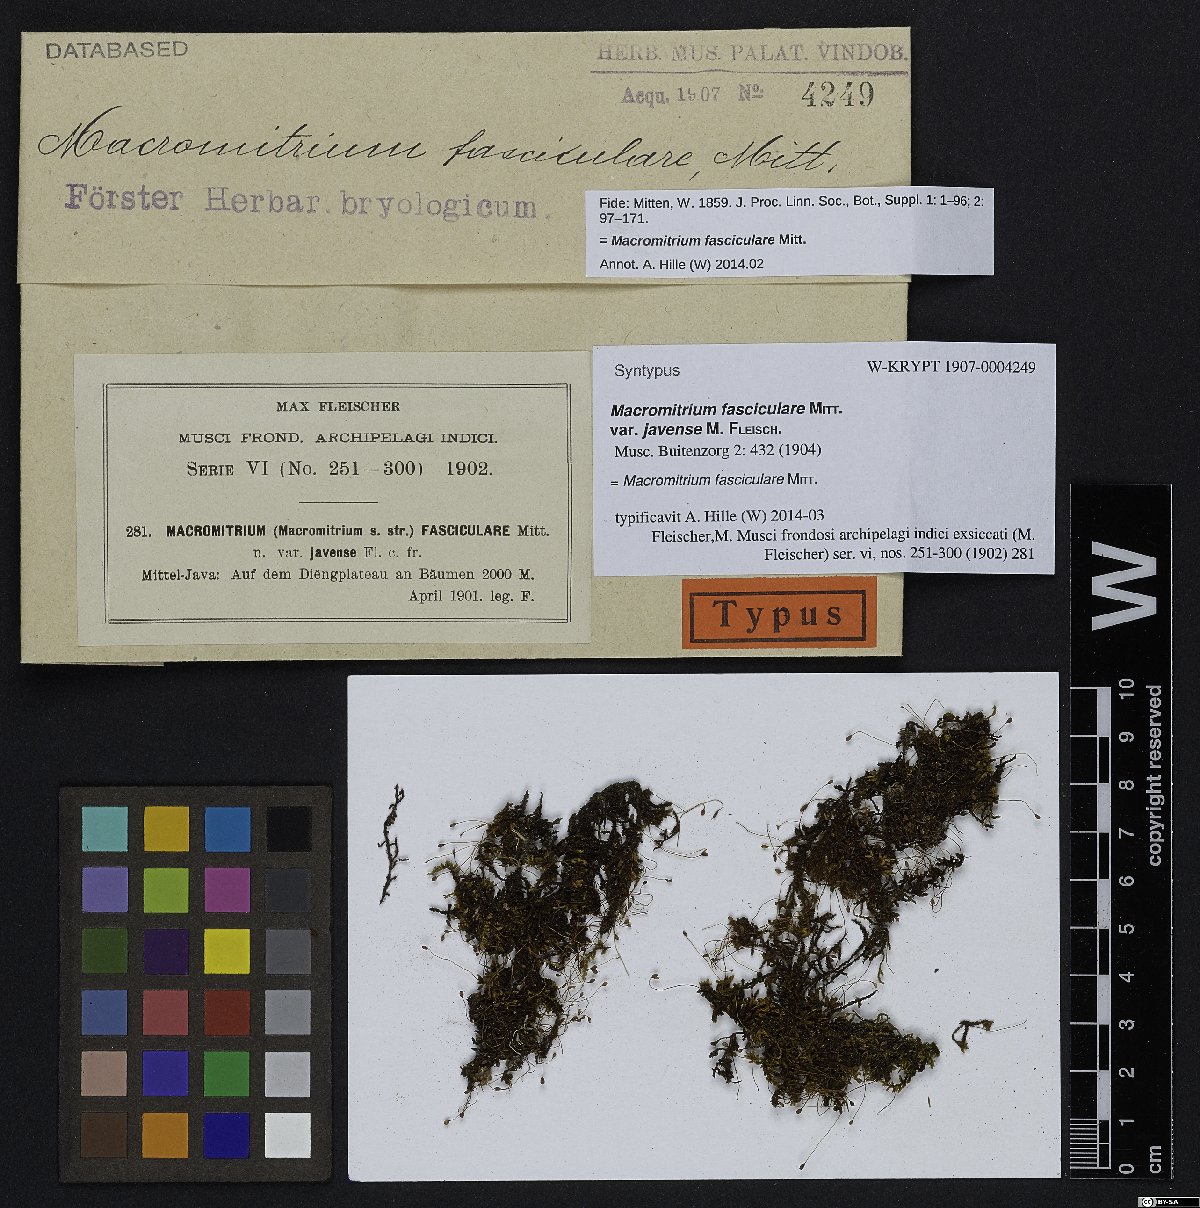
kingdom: Plantae
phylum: Bryophyta
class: Bryopsida
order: Orthotrichales
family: Orthotrichaceae
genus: Macromitrium
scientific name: Macromitrium microstomum
